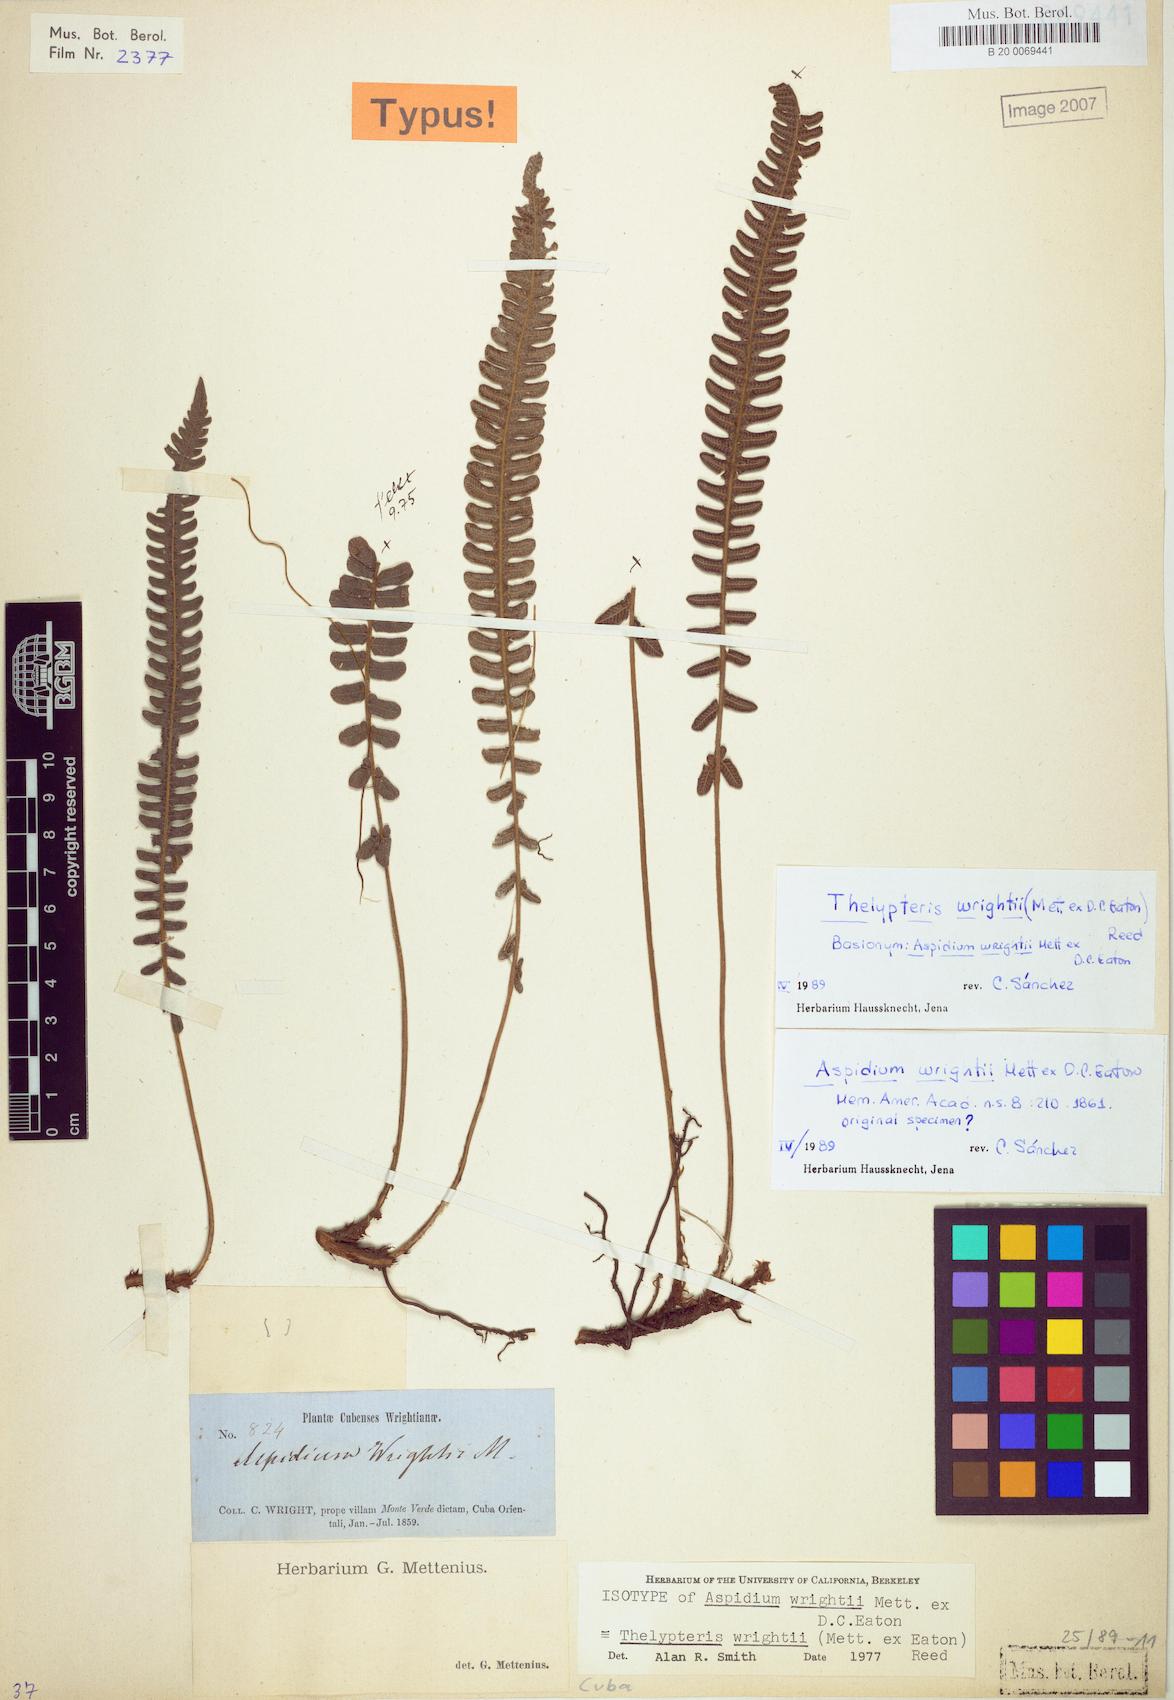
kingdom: Plantae
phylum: Tracheophyta
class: Polypodiopsida
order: Polypodiales
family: Thelypteridaceae
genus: Steiropteris
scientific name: Steiropteris wrightii
